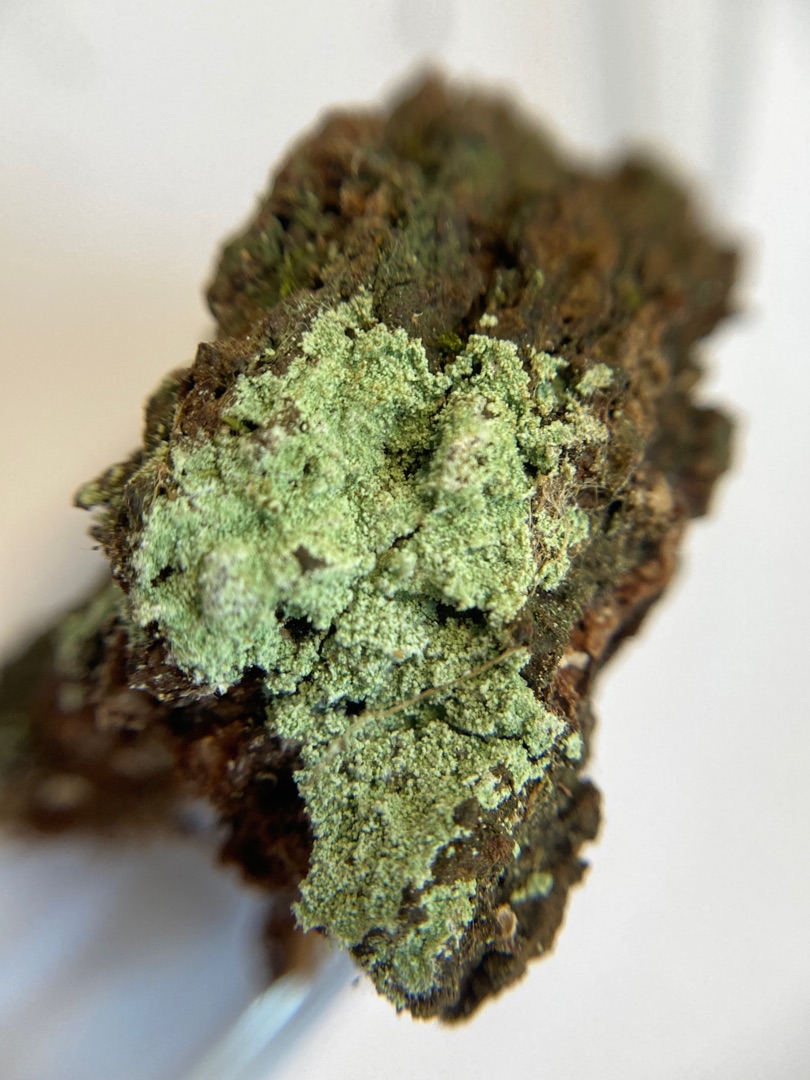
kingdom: Fungi
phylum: Ascomycota
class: Lecanoromycetes
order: Lecanorales
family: Stereocaulaceae
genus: Lepraria
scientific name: Lepraria lobificans
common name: Grøn støvlav
